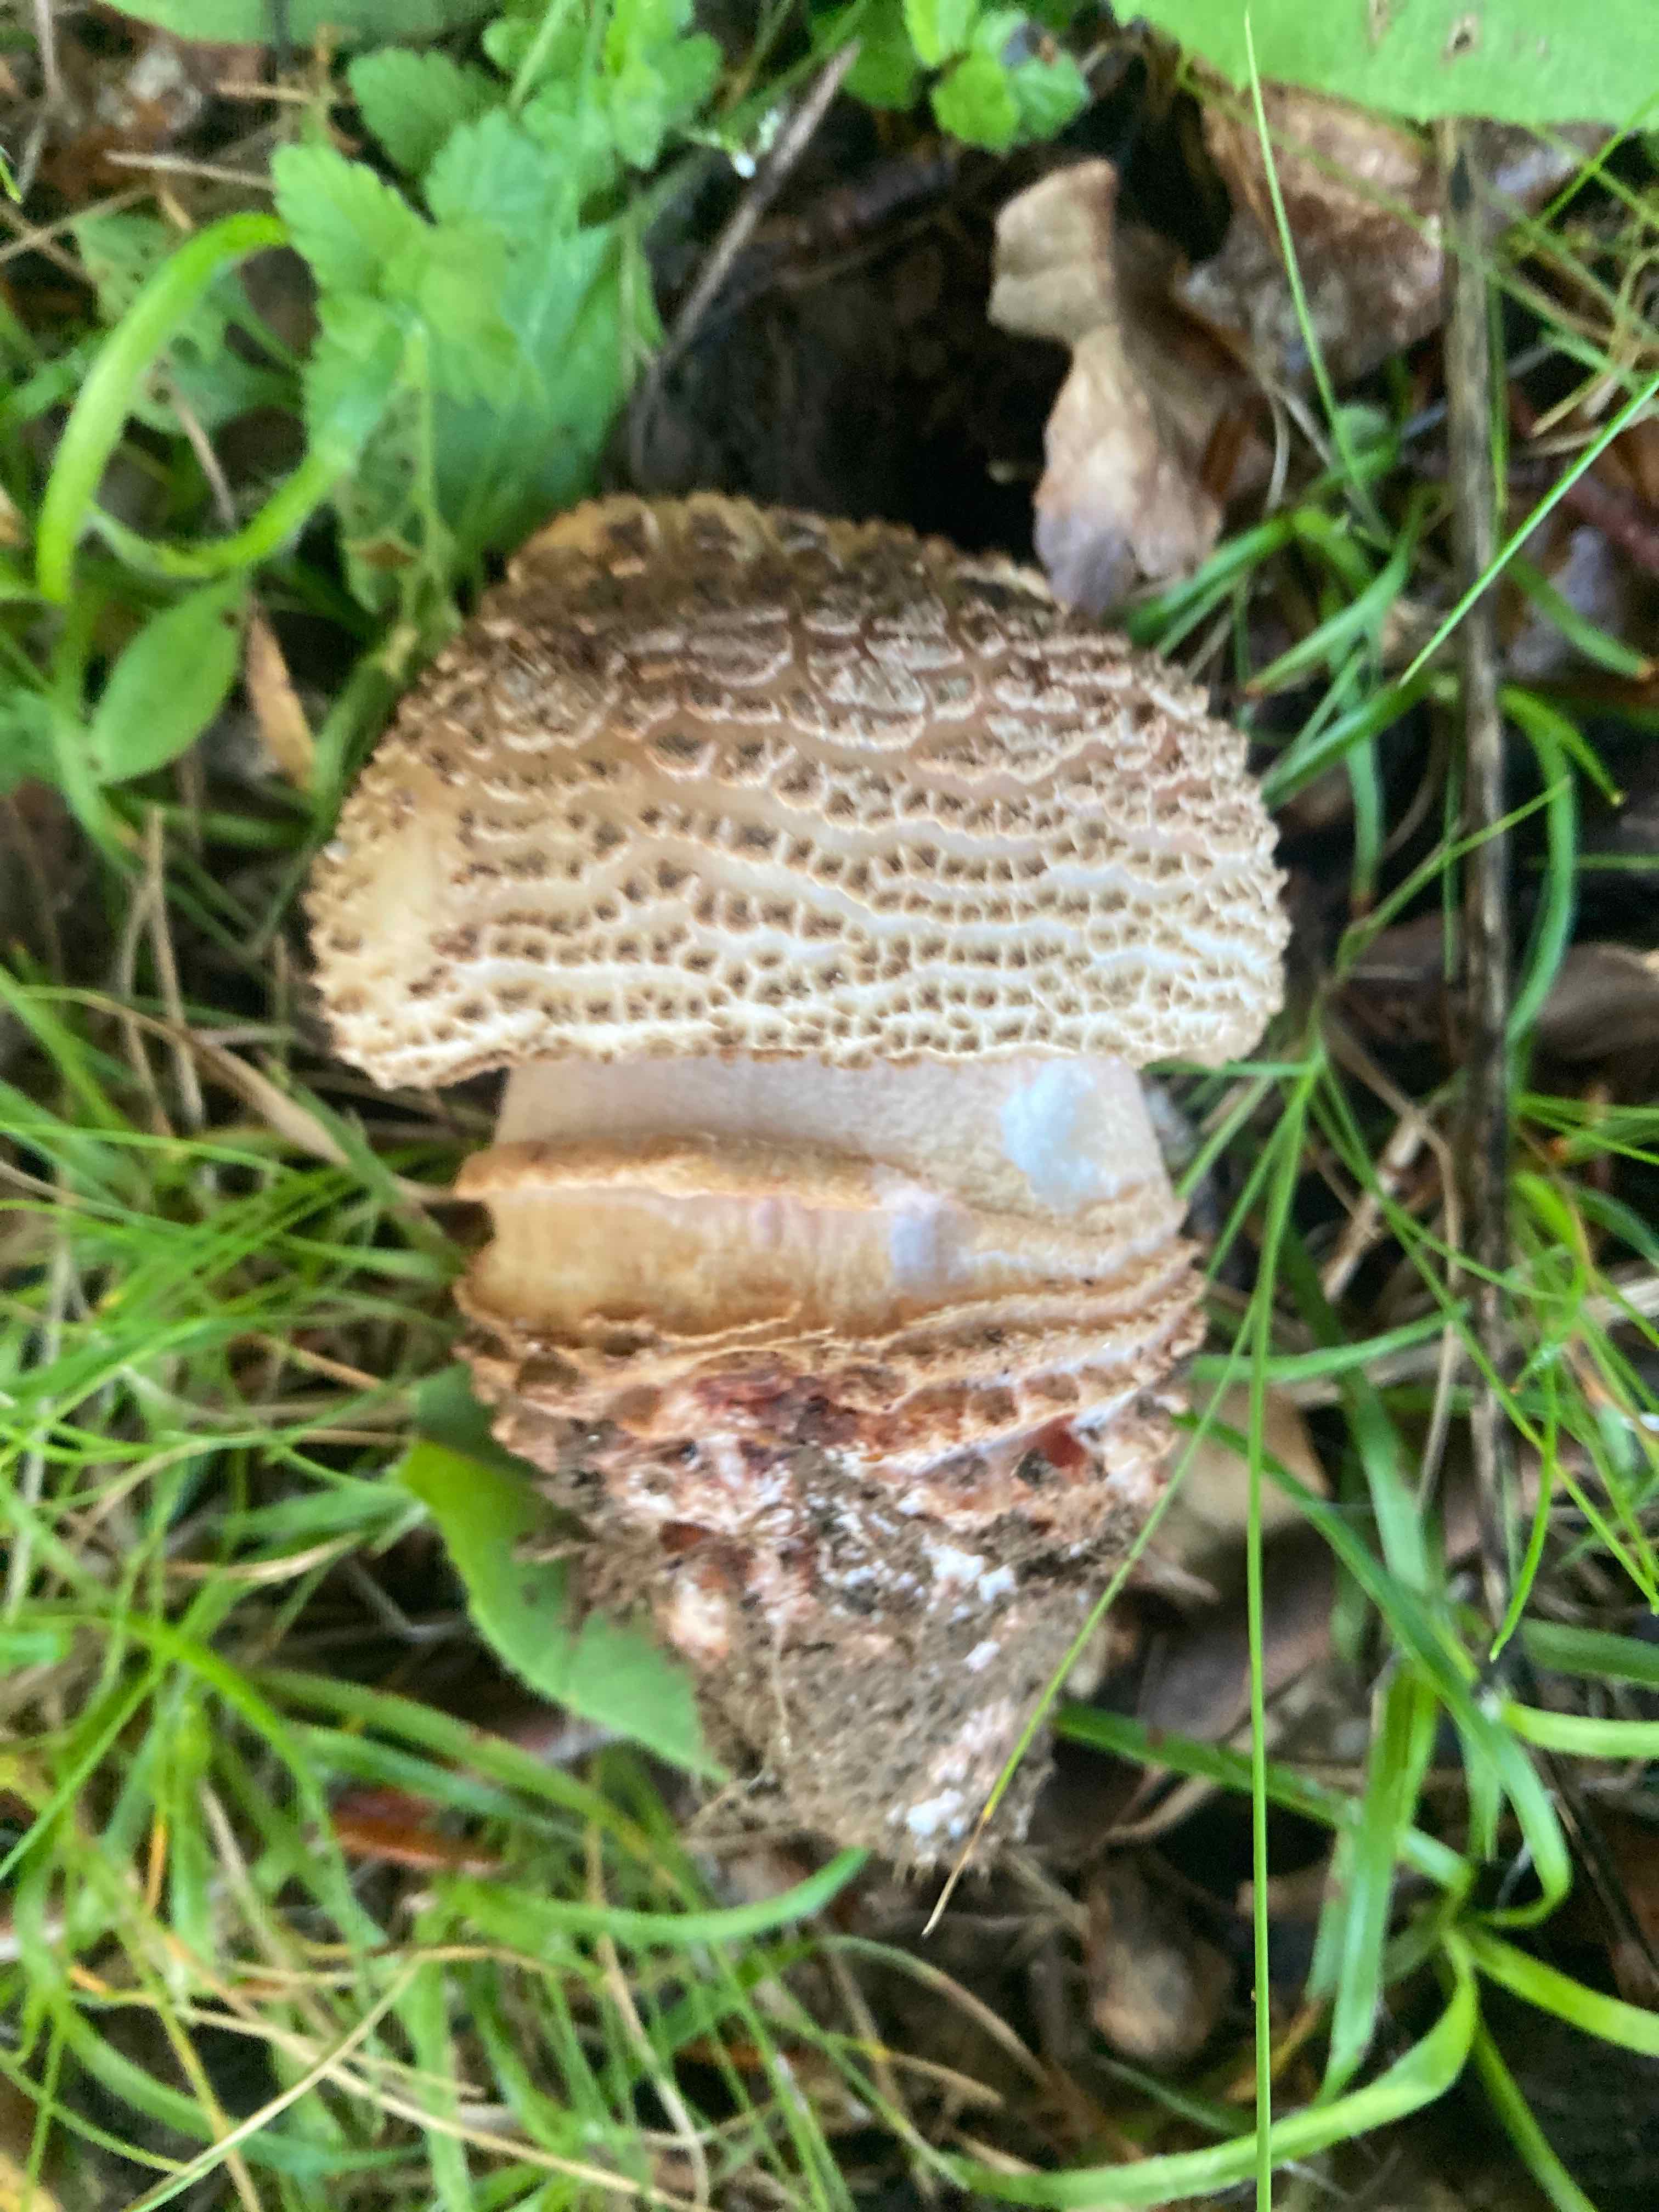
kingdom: Fungi
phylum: Basidiomycota
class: Agaricomycetes
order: Agaricales
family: Amanitaceae
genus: Amanita
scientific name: Amanita rubescens
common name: rødmende fluesvamp
